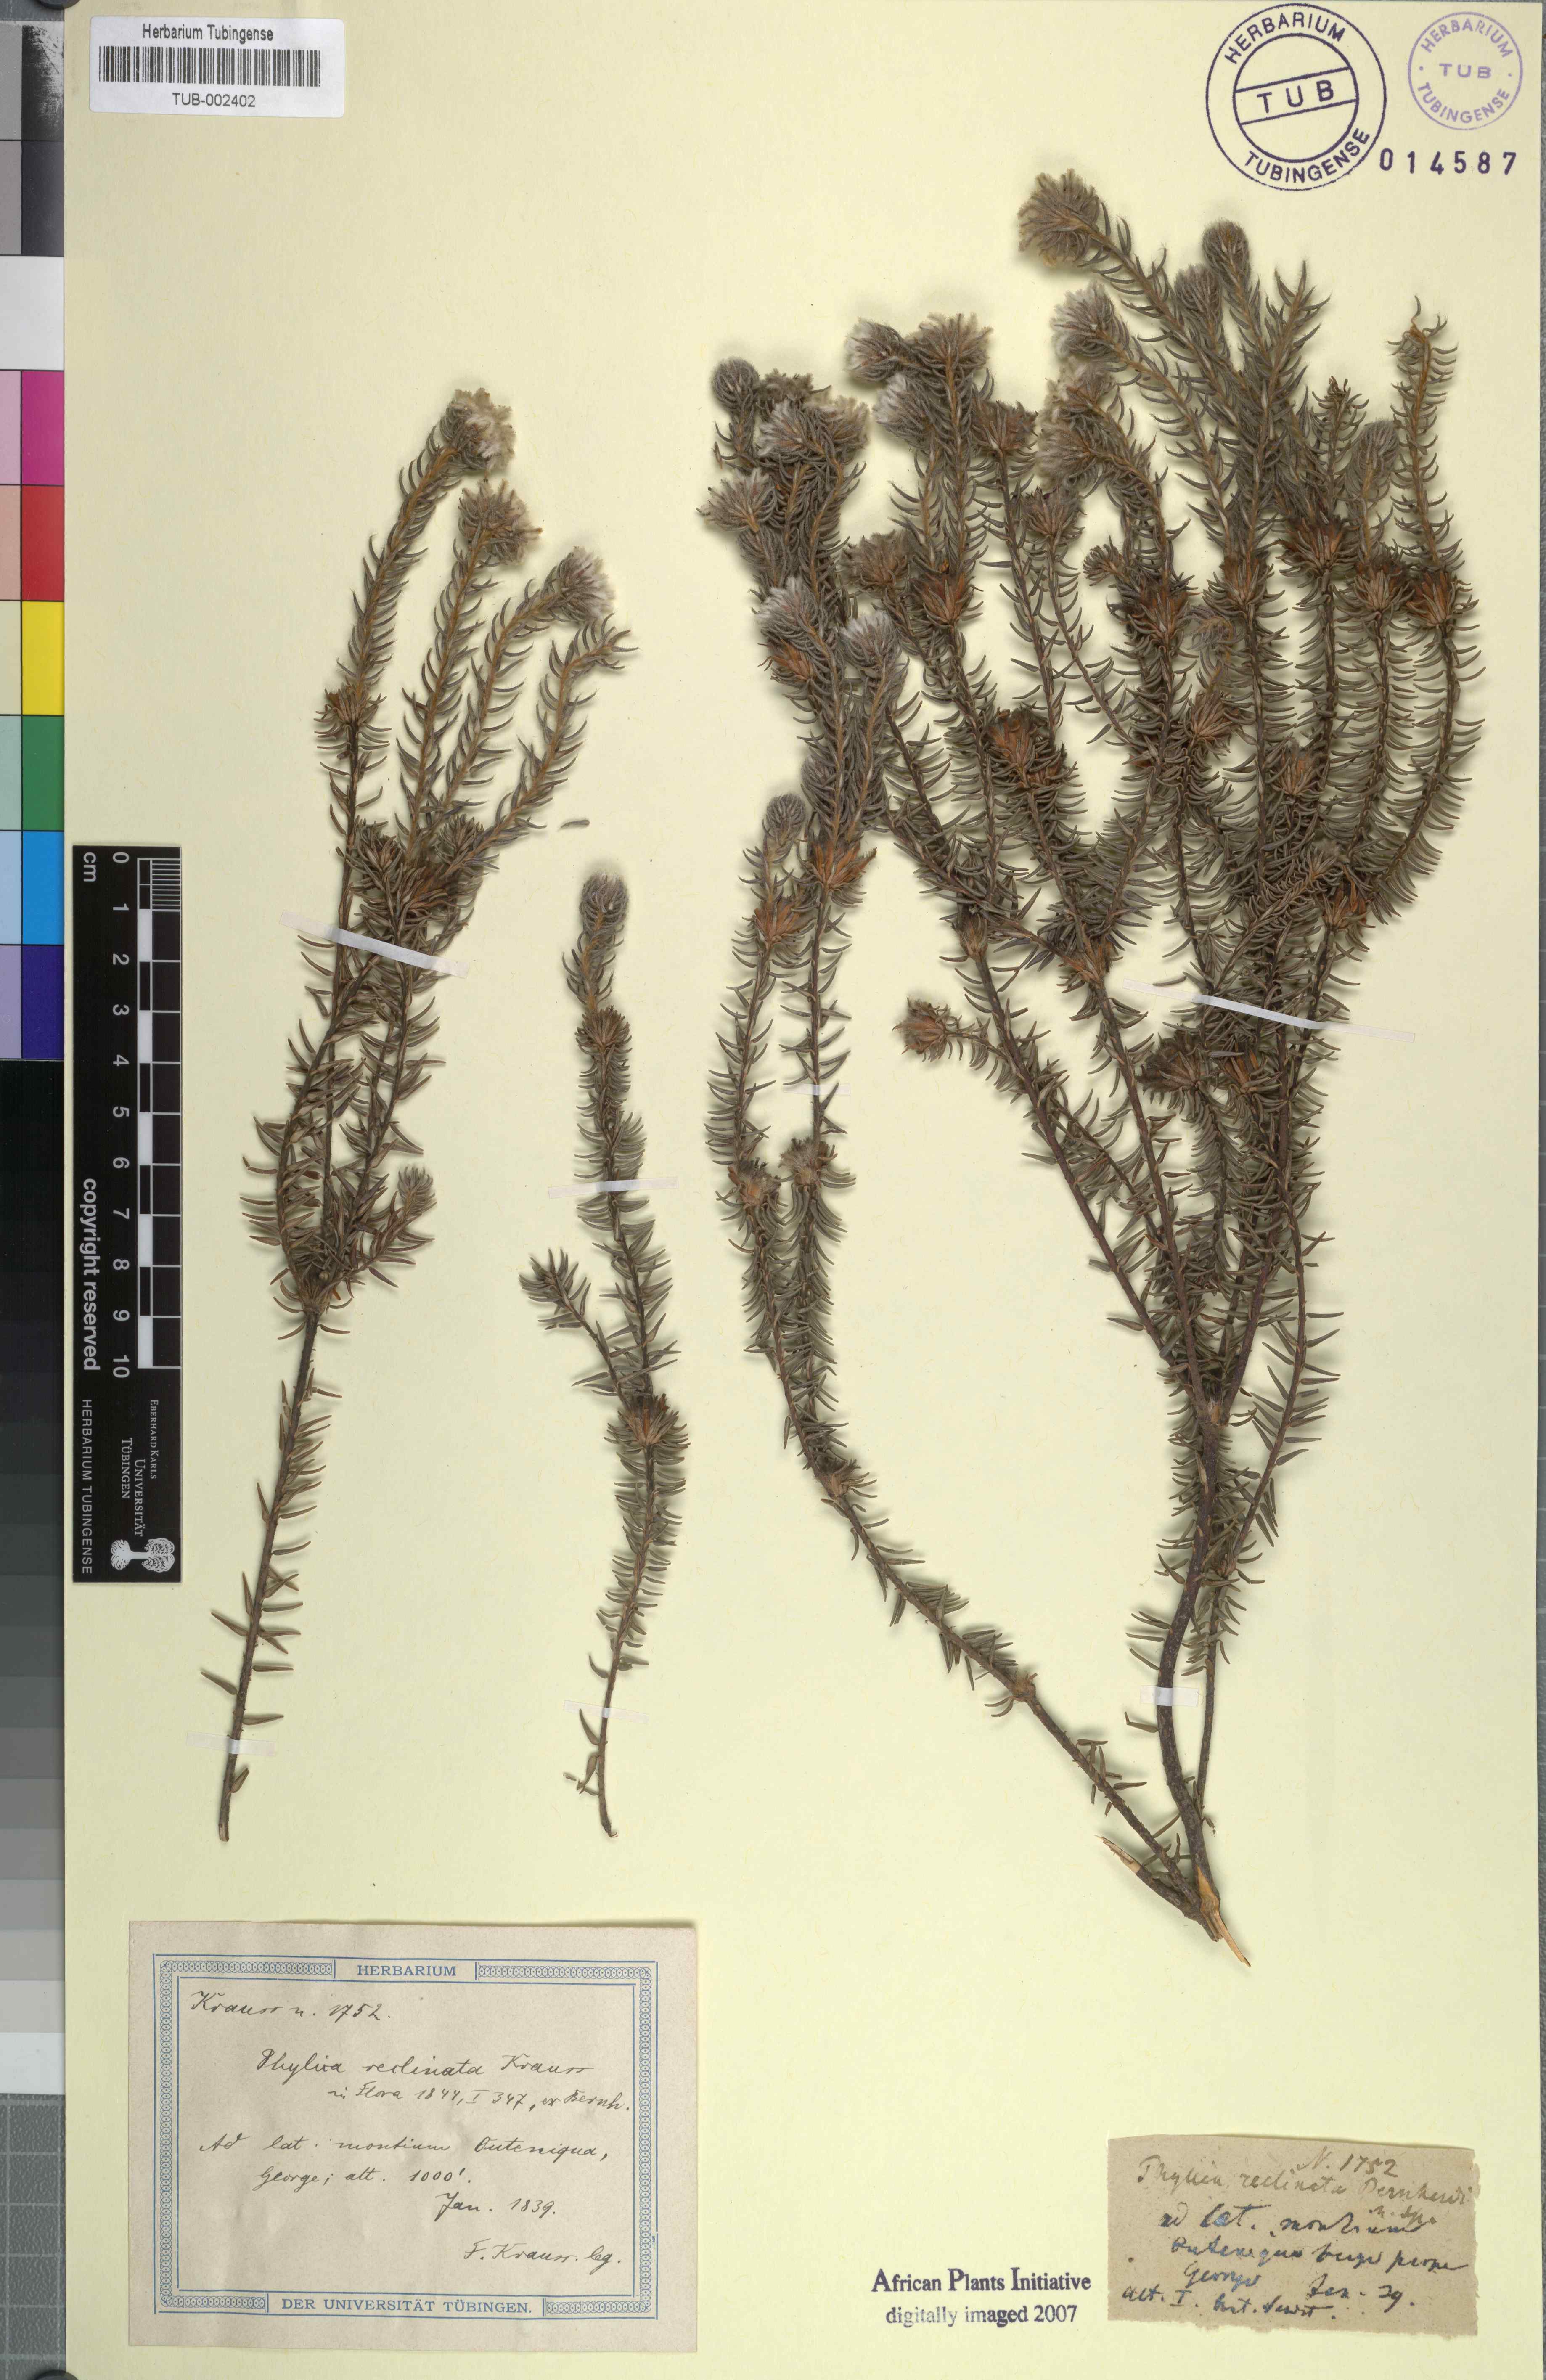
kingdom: Plantae
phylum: Tracheophyta
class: Magnoliopsida
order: Rosales
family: Rhamnaceae
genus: Phylica
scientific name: Phylica
